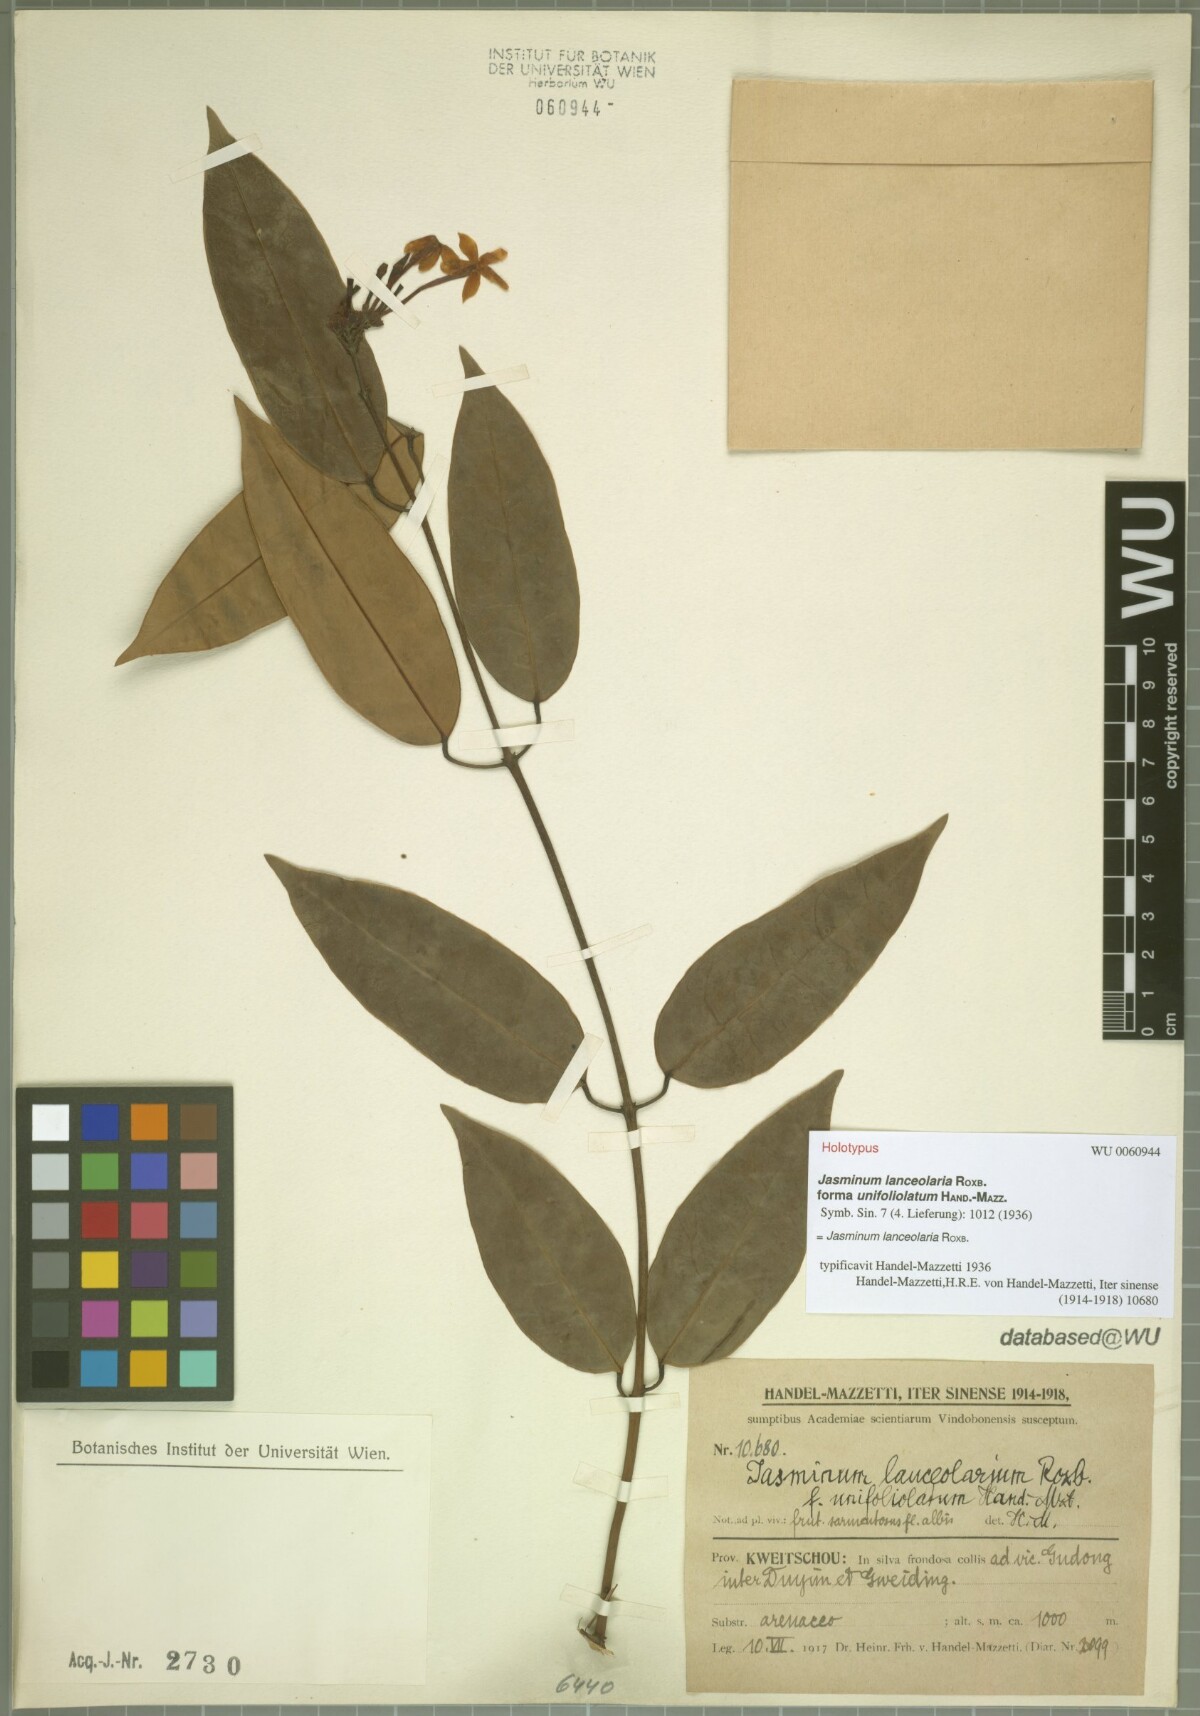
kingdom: Plantae
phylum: Tracheophyta
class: Magnoliopsida
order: Lamiales
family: Oleaceae
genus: Jasminum
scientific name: Jasminum lanceolaria
